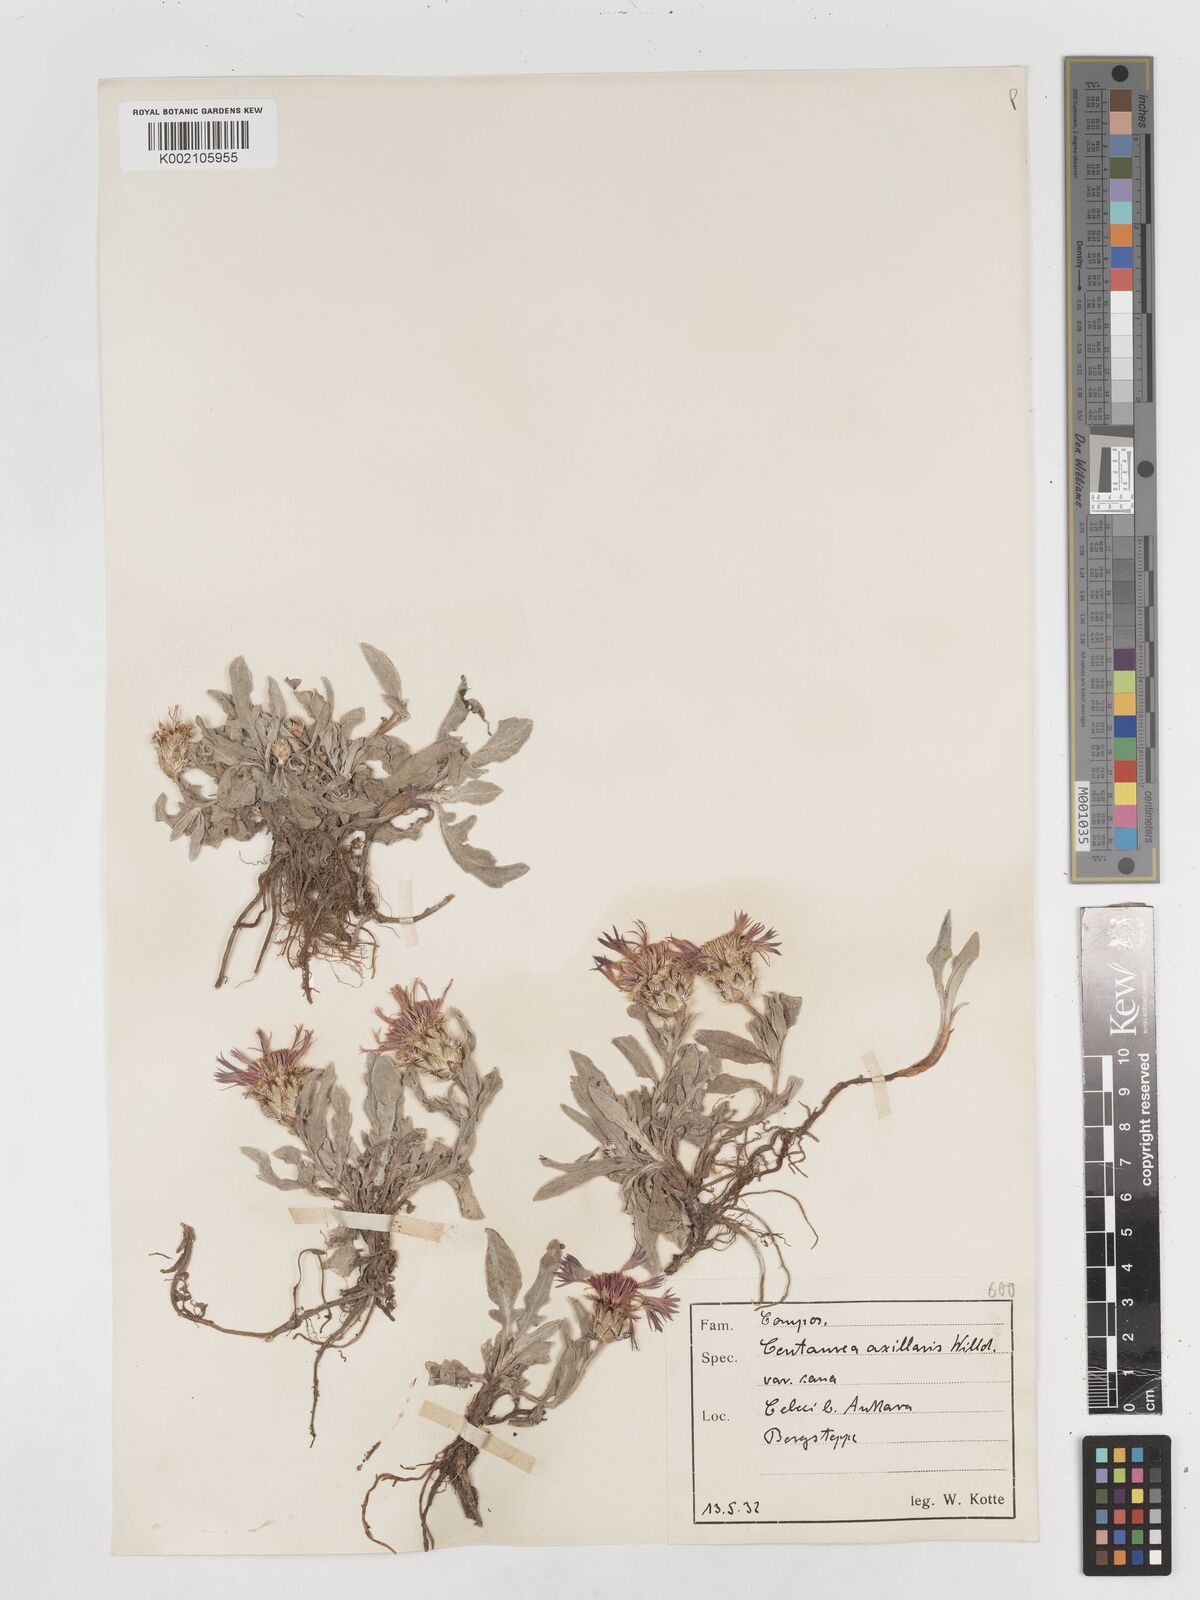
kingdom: Plantae
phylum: Tracheophyta
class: Magnoliopsida
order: Asterales
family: Asteraceae
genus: Centaurea
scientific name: Centaurea
